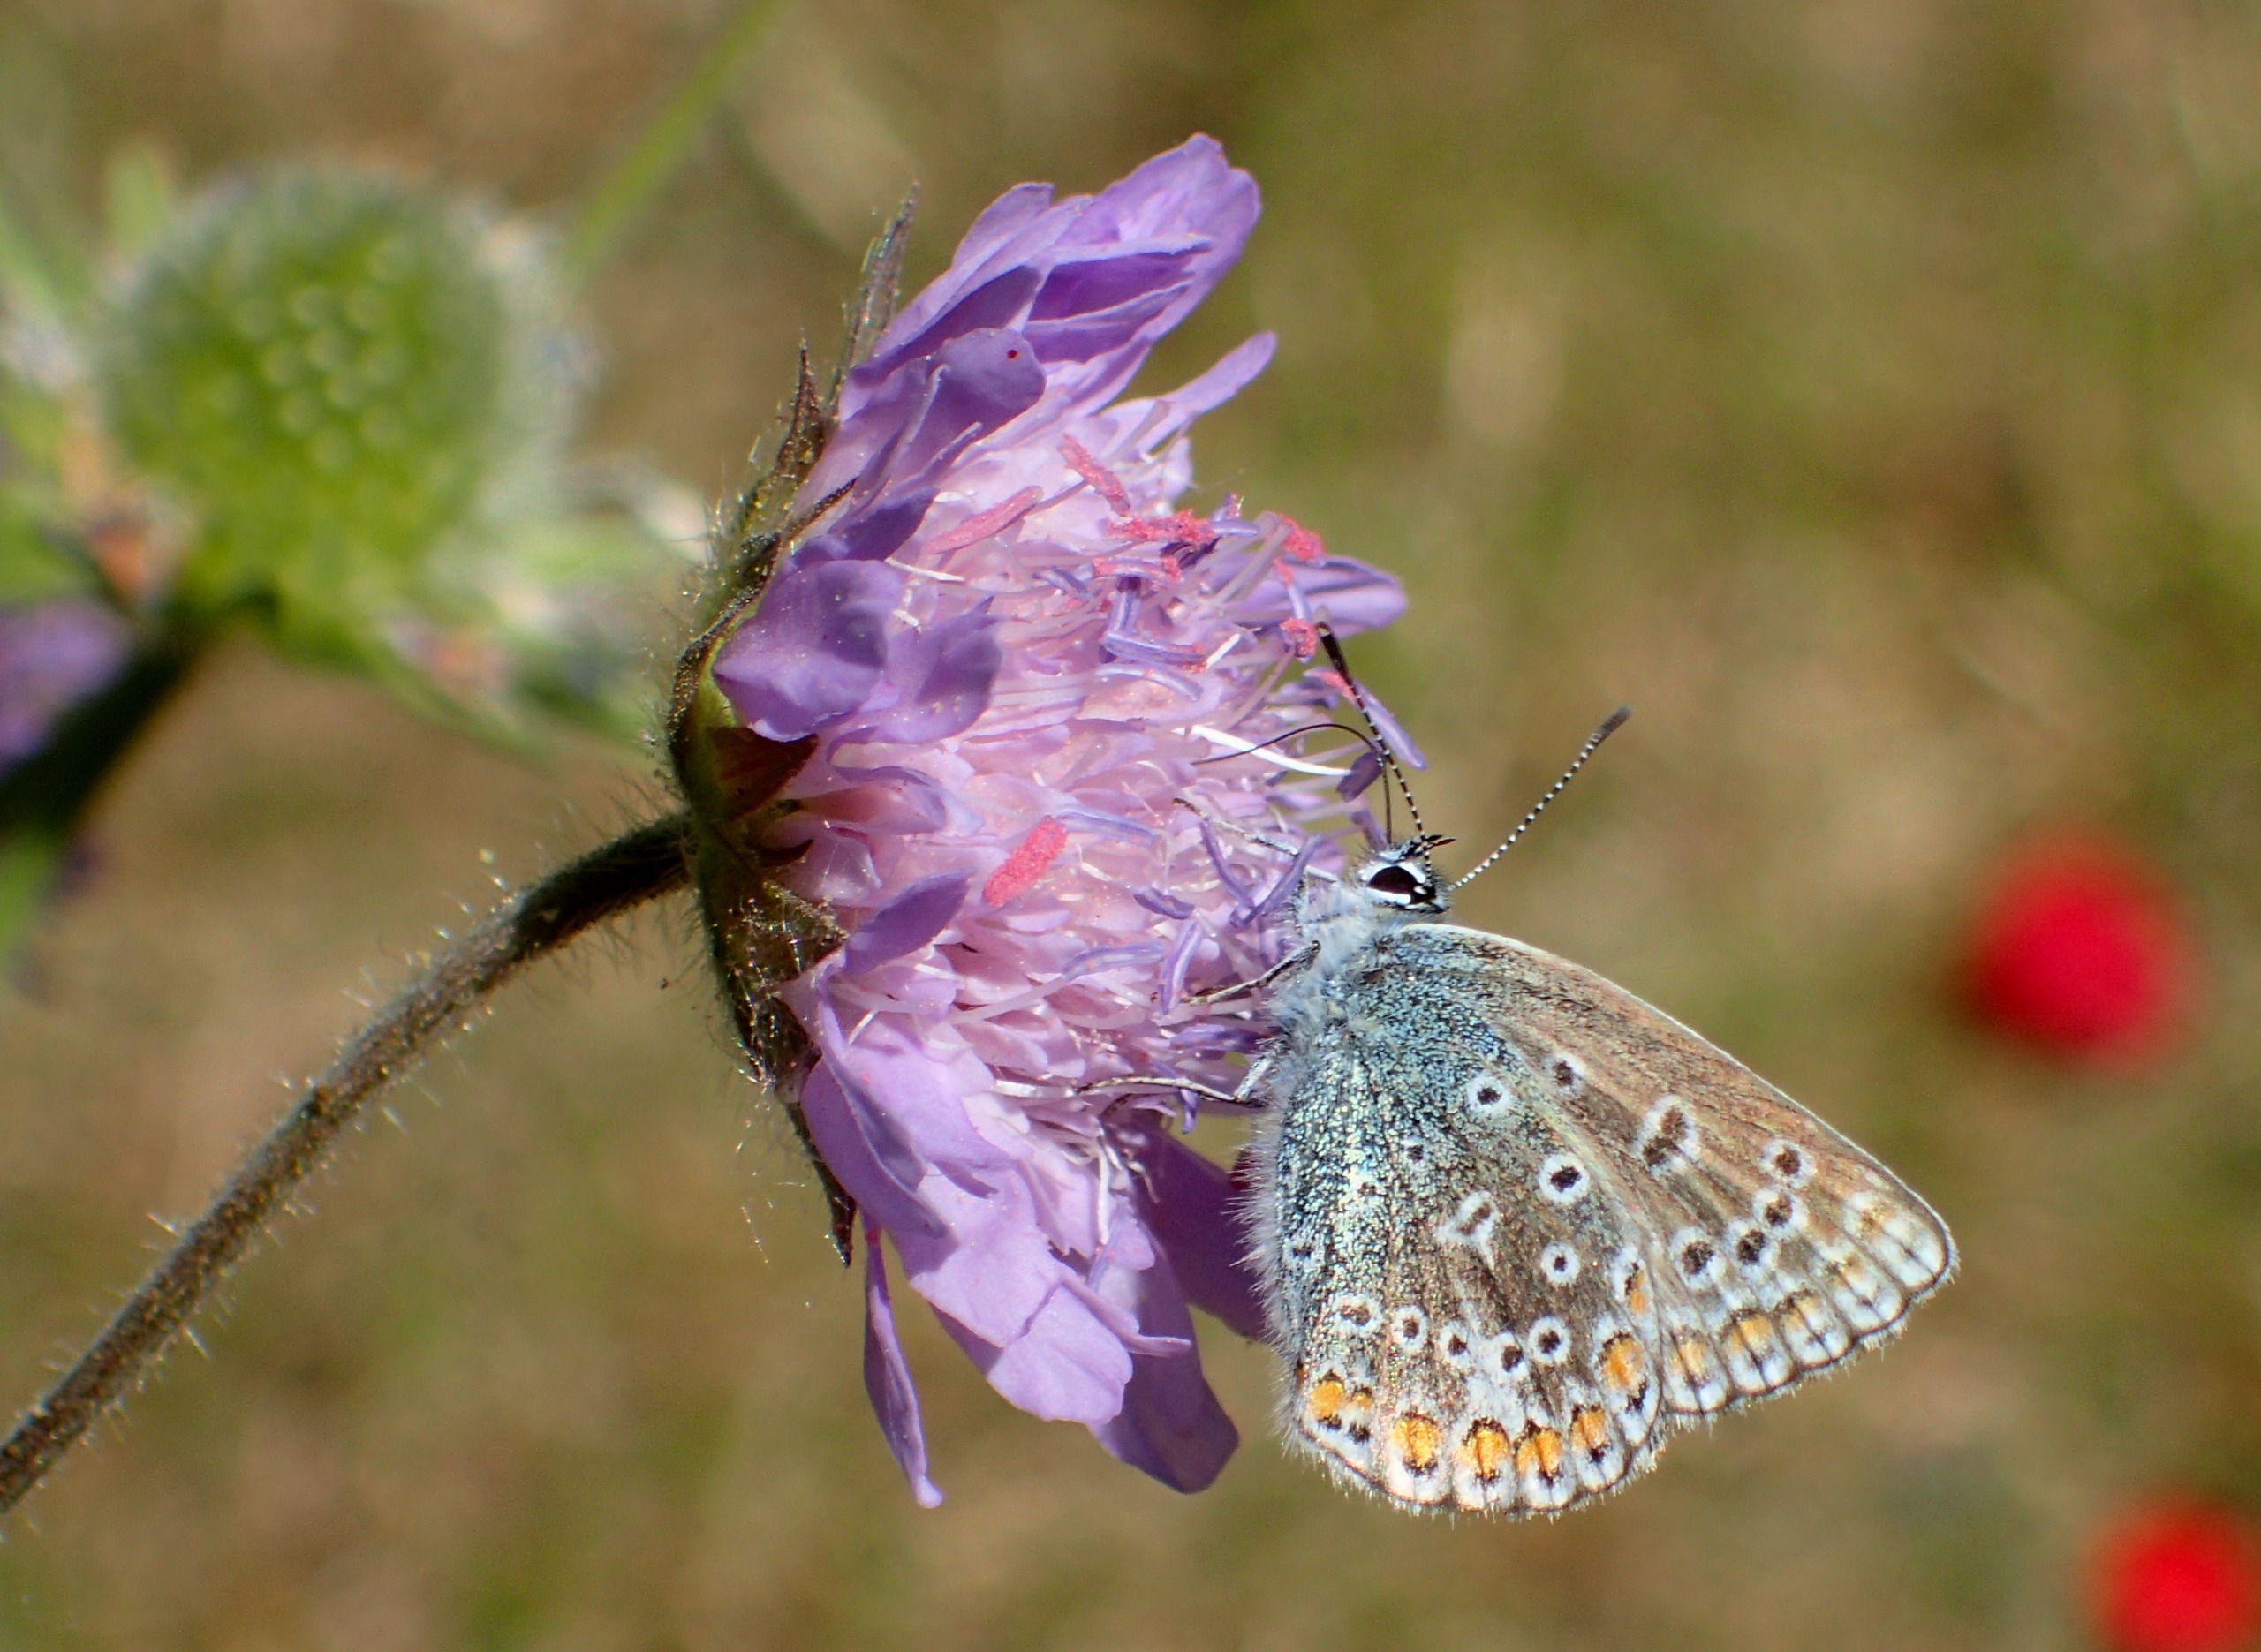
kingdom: Animalia
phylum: Arthropoda
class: Insecta
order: Lepidoptera
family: Lycaenidae
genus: Polyommatus
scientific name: Polyommatus icarus
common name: Almindelig blåfugl
